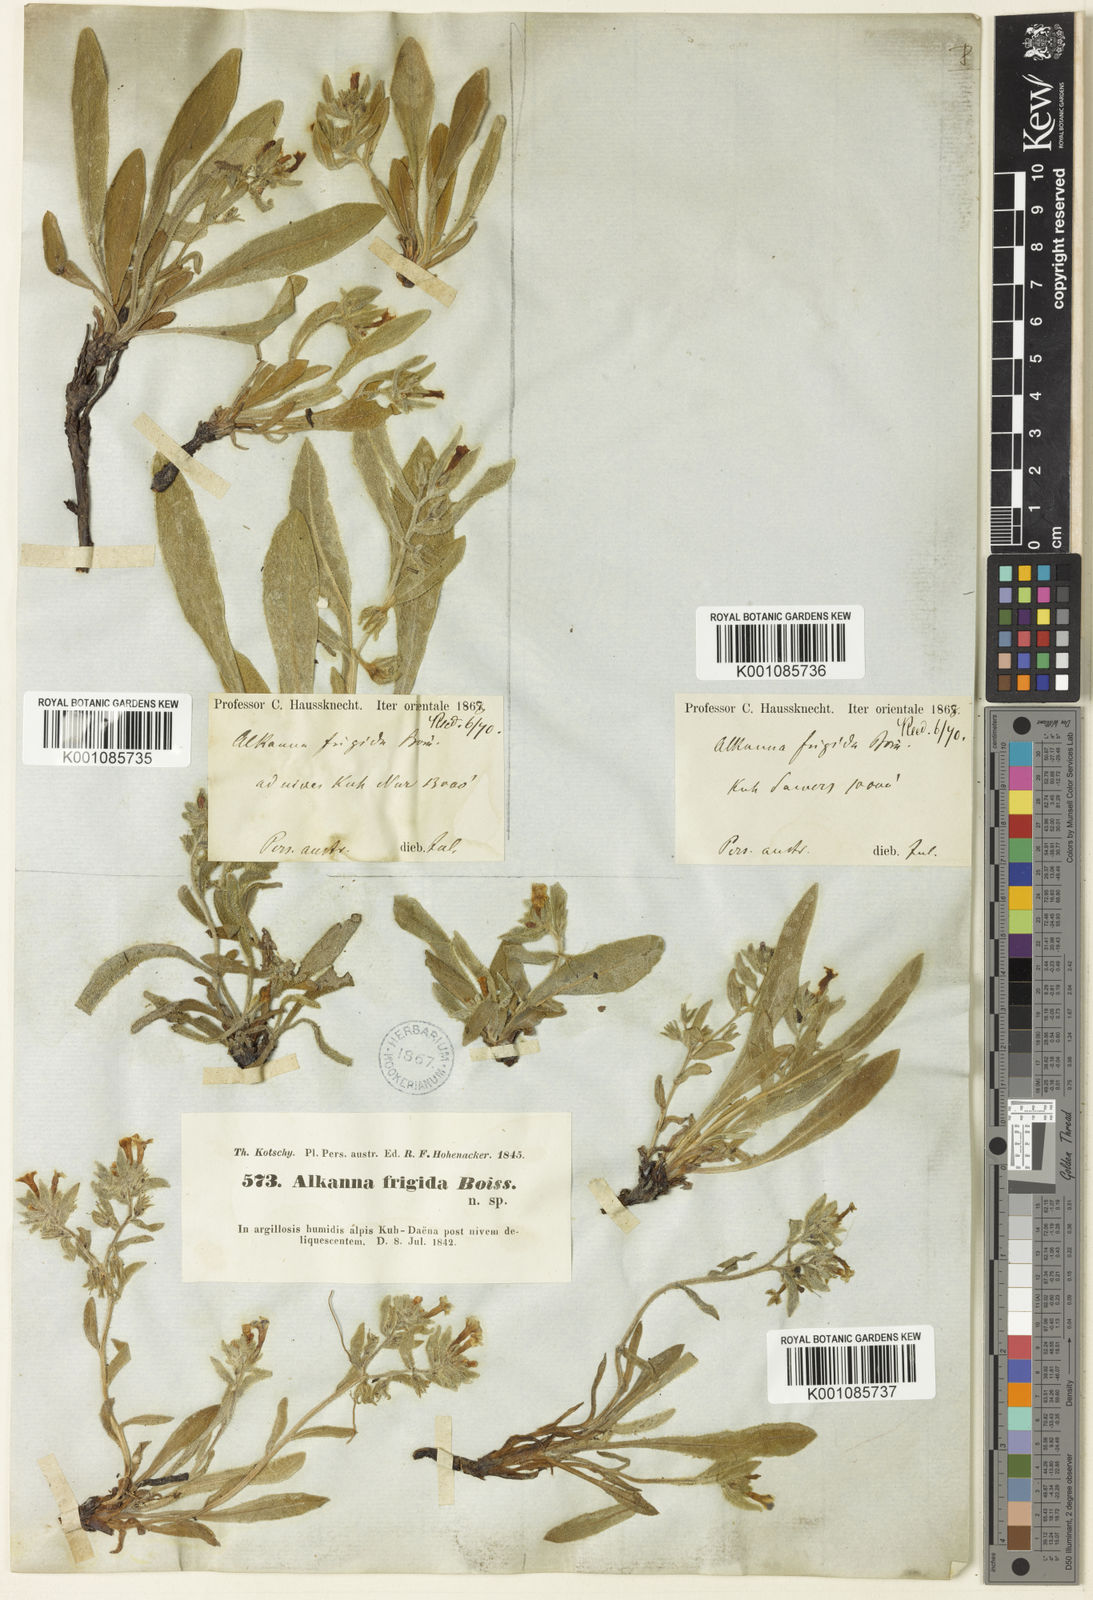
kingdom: Plantae
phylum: Tracheophyta
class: Magnoliopsida
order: Boraginales
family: Boraginaceae
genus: Alkanna
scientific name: Alkanna frigida
